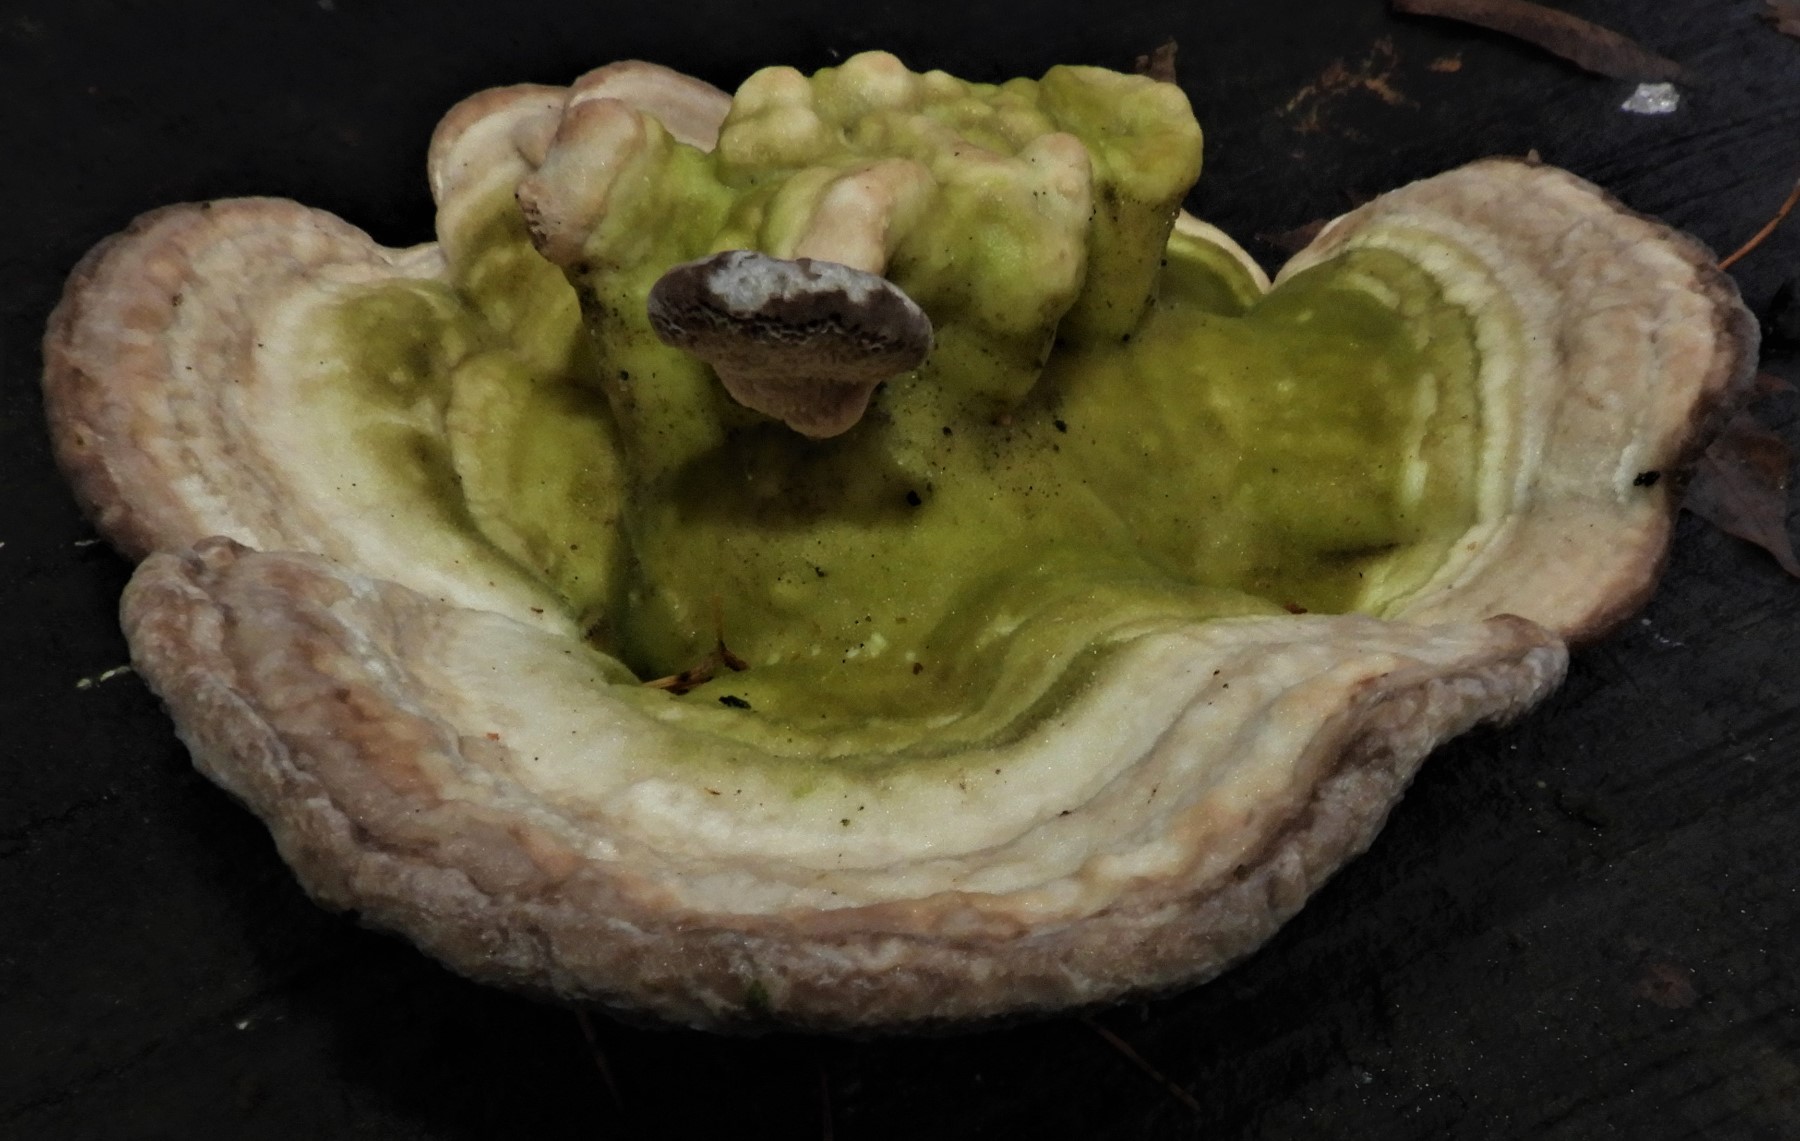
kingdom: Fungi
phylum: Basidiomycota
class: Agaricomycetes
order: Polyporales
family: Polyporaceae
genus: Trametes
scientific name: Trametes hirsuta
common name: håret læderporesvamp
